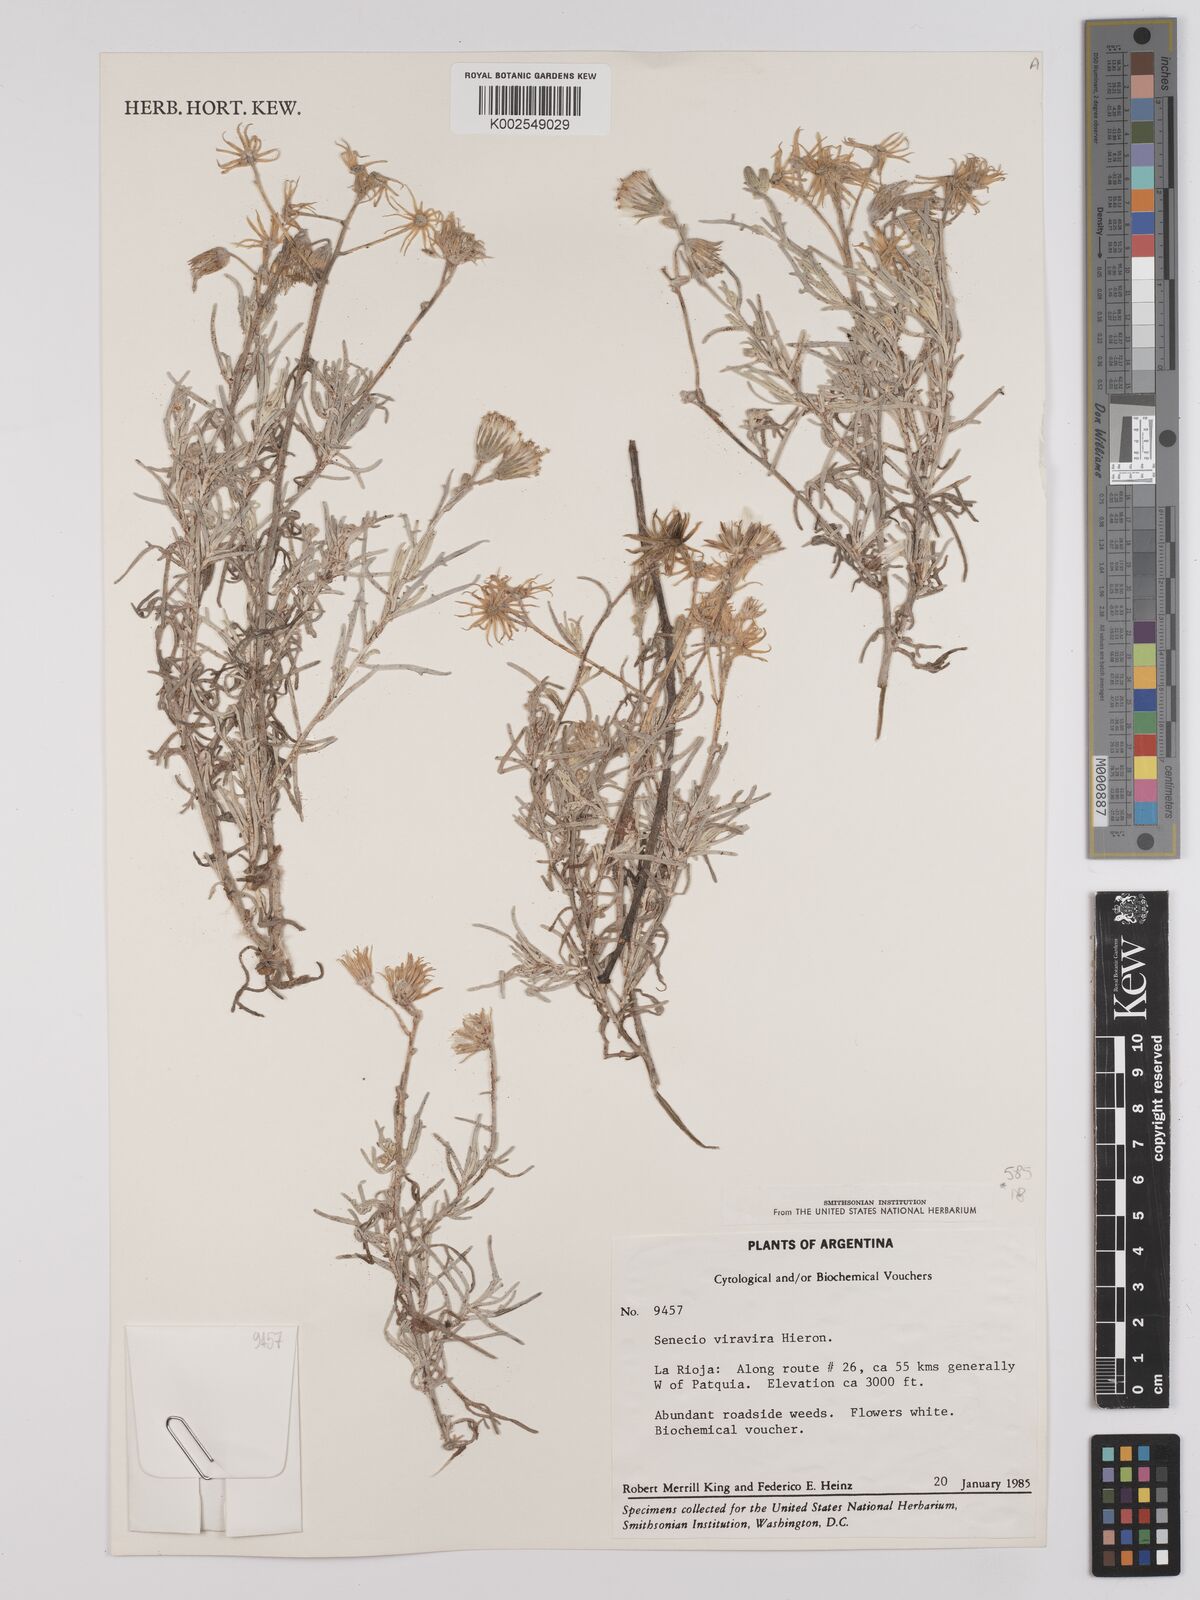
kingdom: Plantae
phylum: Tracheophyta
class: Magnoliopsida
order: Asterales
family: Asteraceae
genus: Senecio
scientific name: Senecio leucostachys
